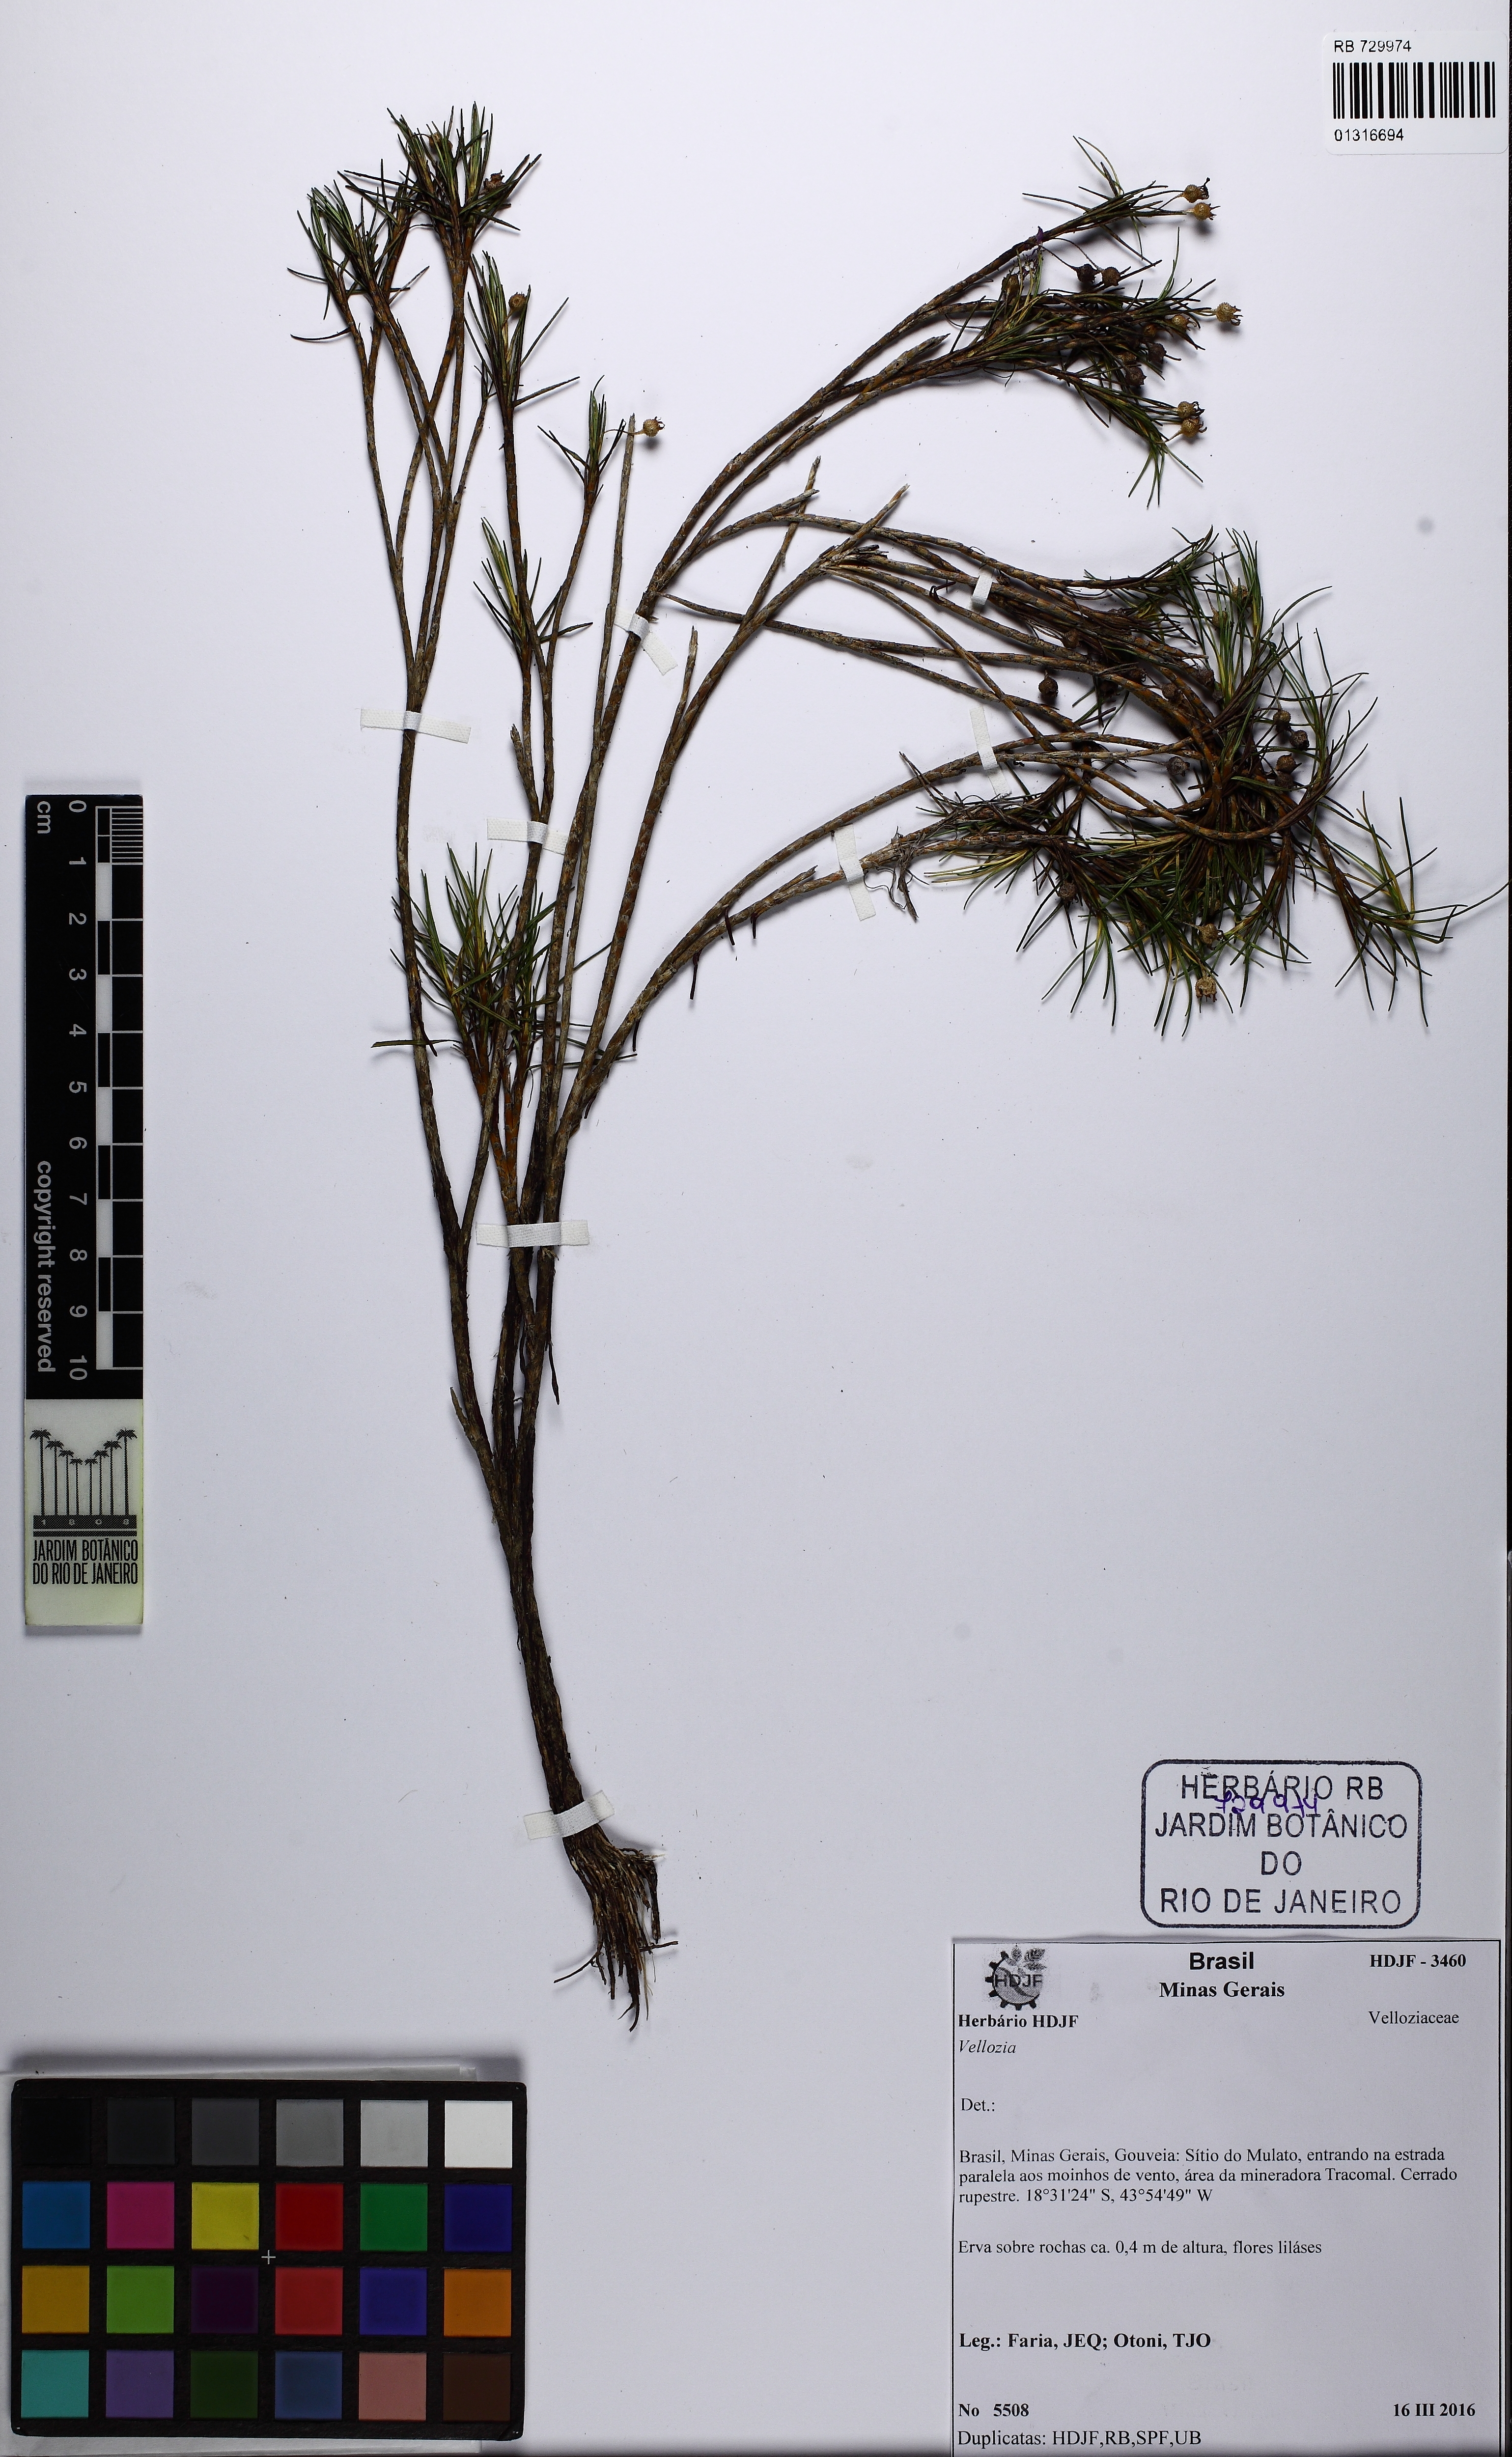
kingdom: Plantae
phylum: Tracheophyta
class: Liliopsida
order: Pandanales
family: Velloziaceae
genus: Vellozia
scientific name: Vellozia minima
